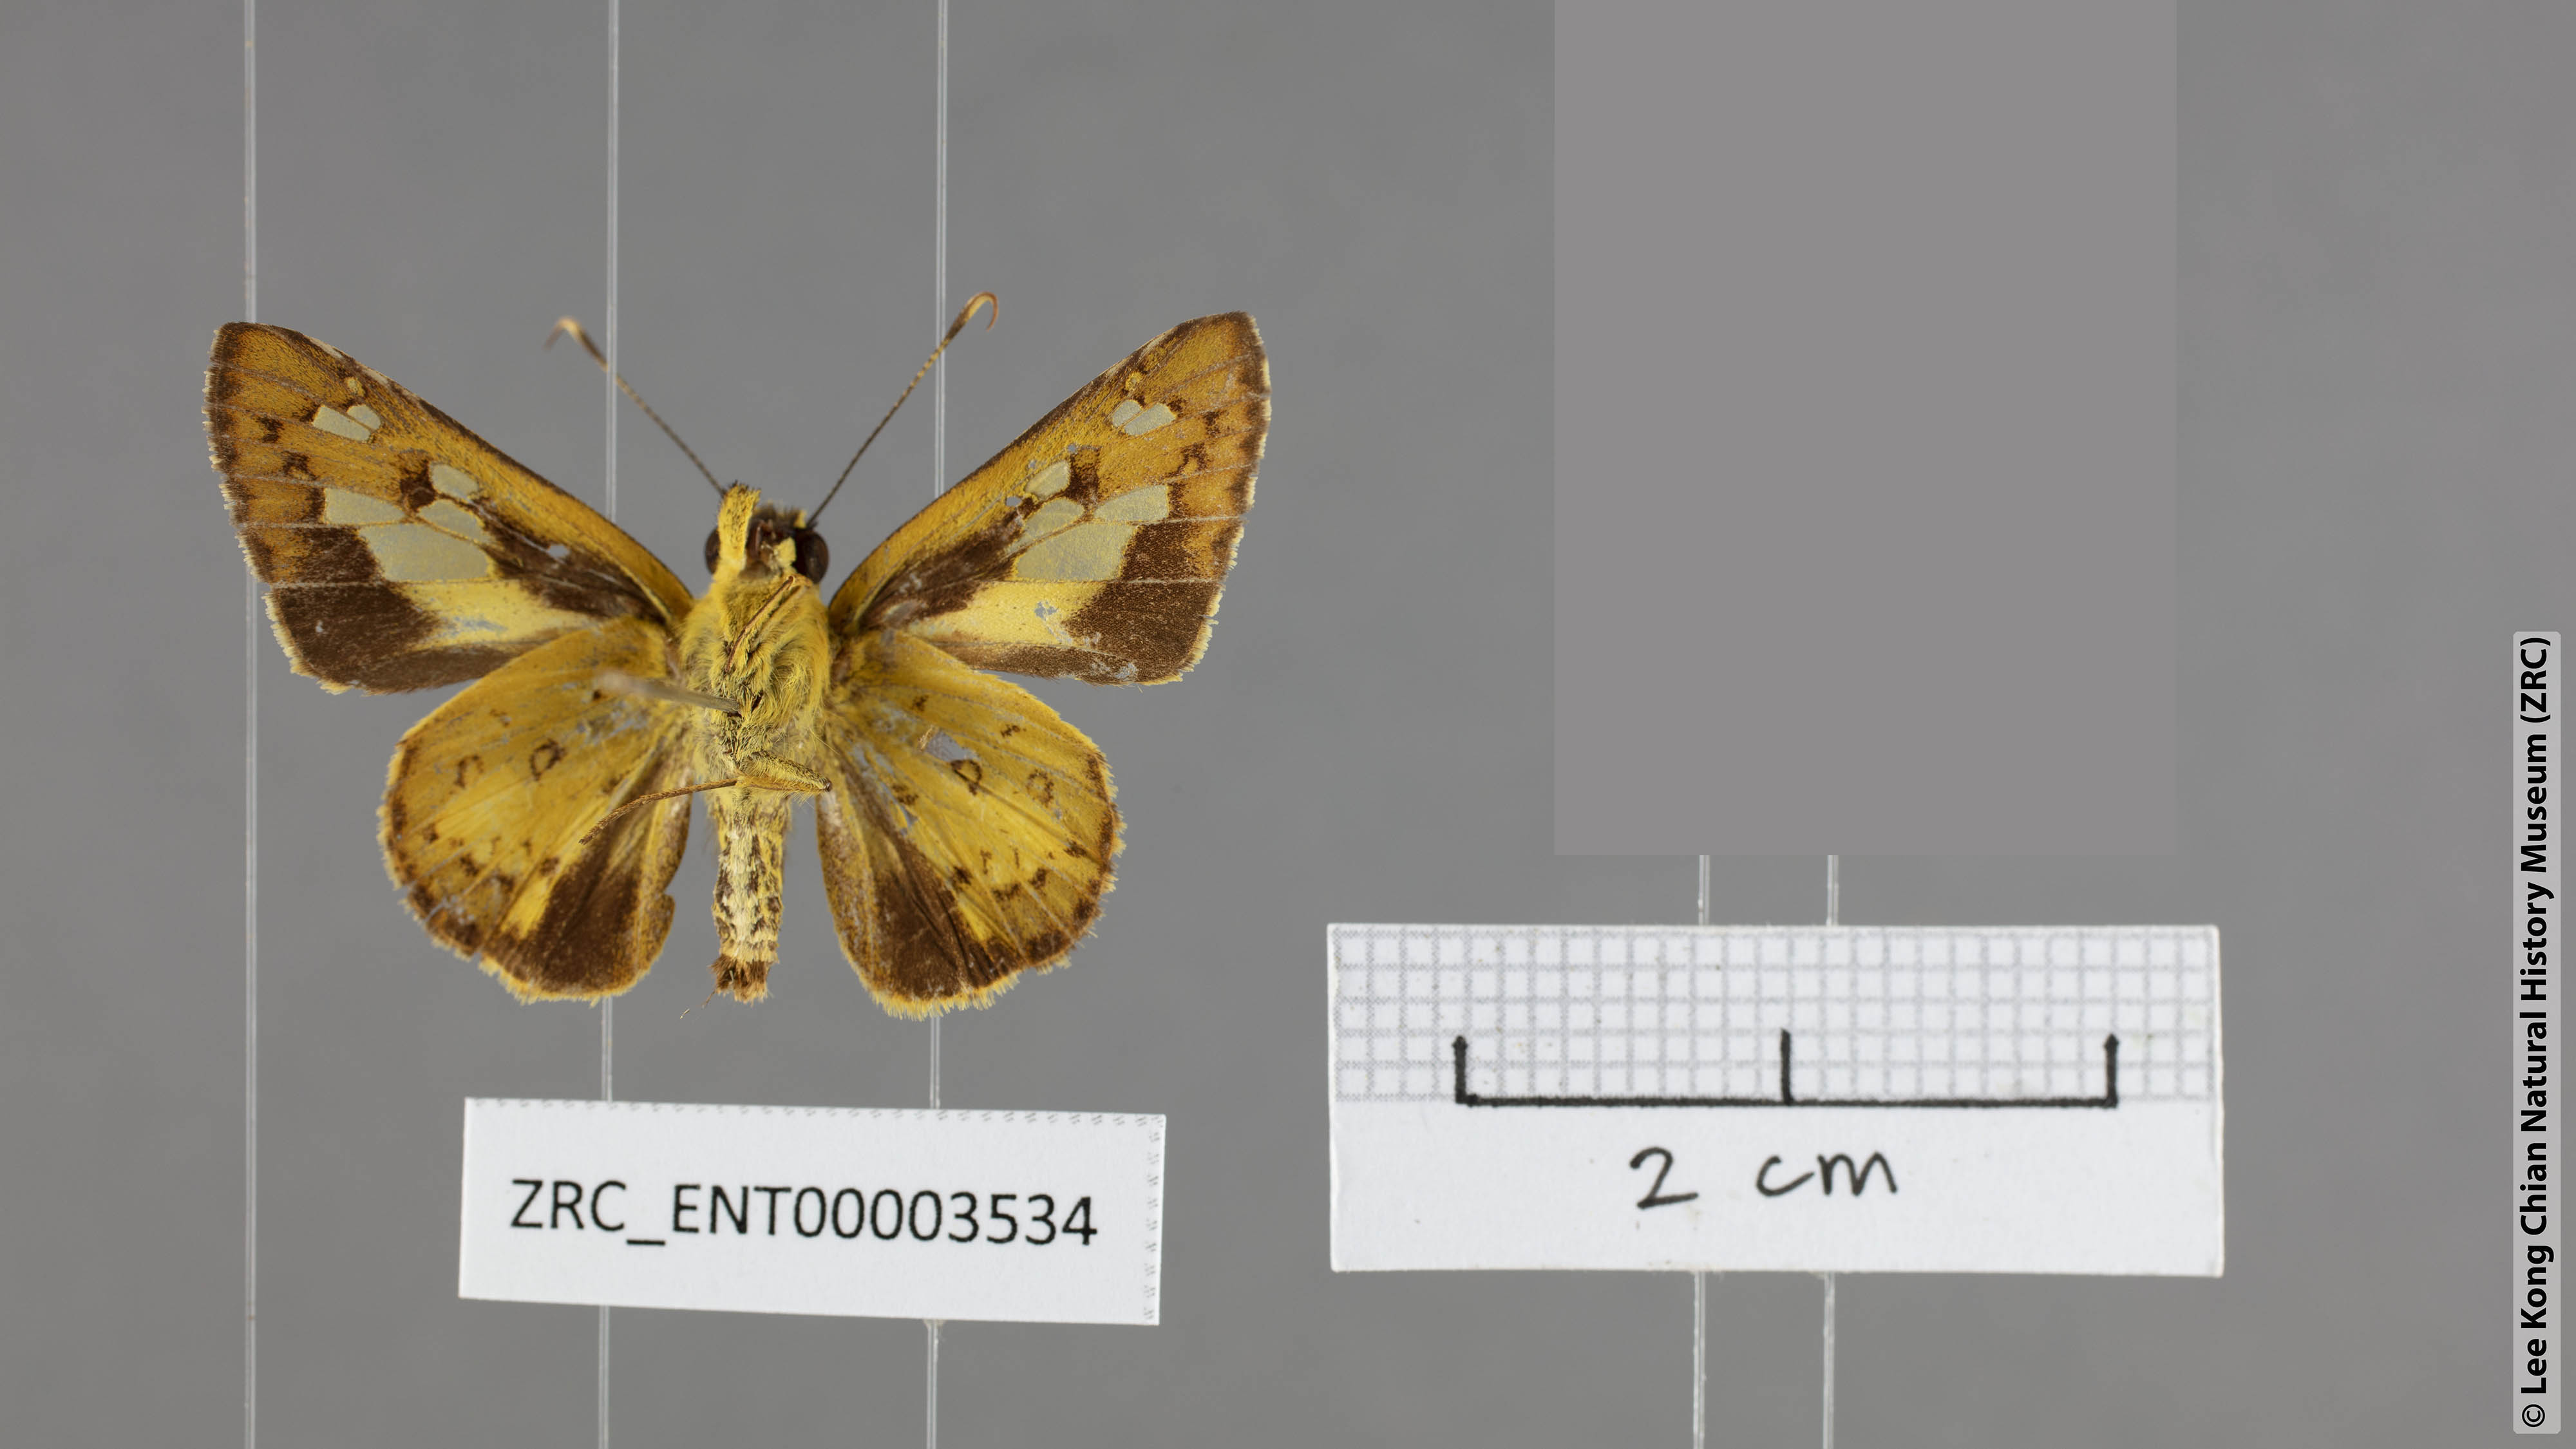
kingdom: Animalia
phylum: Arthropoda
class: Insecta
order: Lepidoptera
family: Hesperiidae
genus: Salanoemia
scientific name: Salanoemia tavoyana
